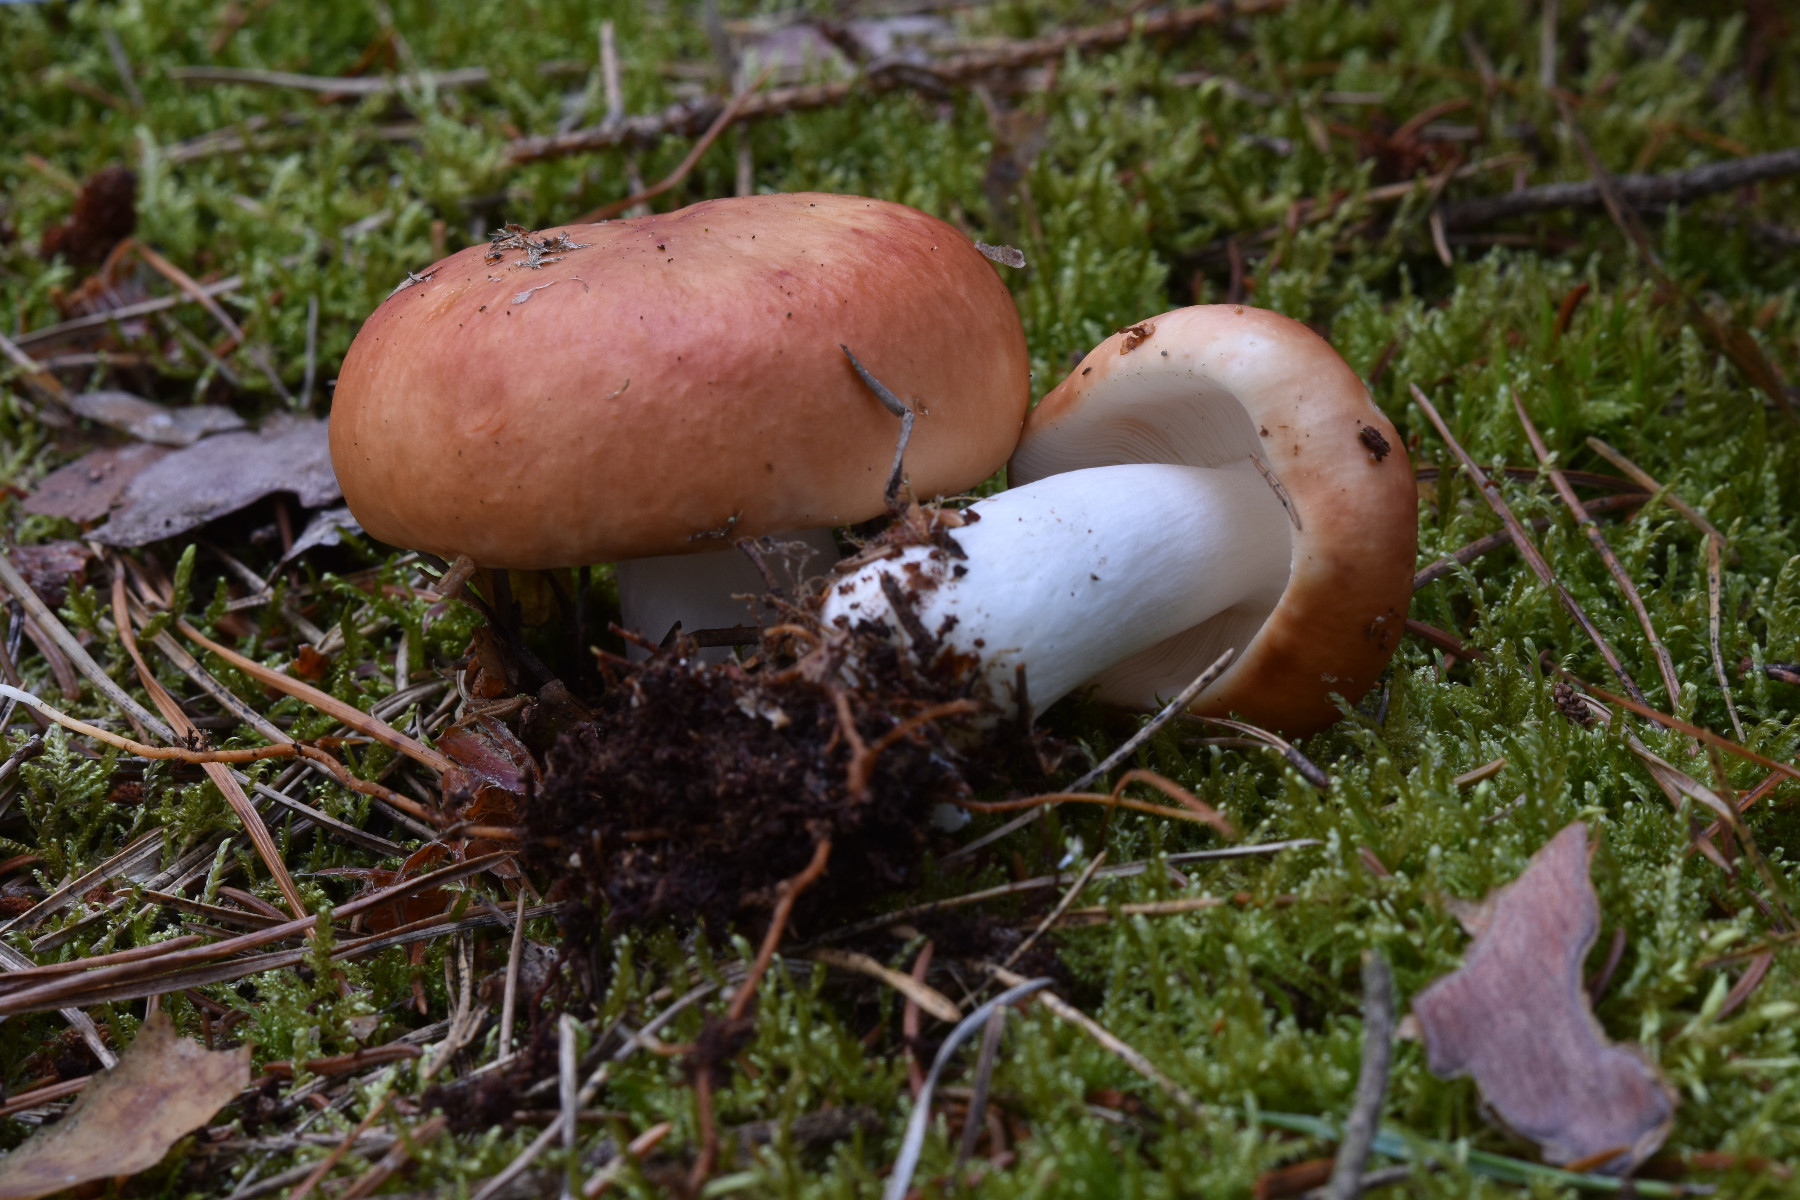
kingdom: Fungi
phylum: Basidiomycota
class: Agaricomycetes
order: Russulales
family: Russulaceae
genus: Russula
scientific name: Russula paludosa
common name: prægtig skørhat
